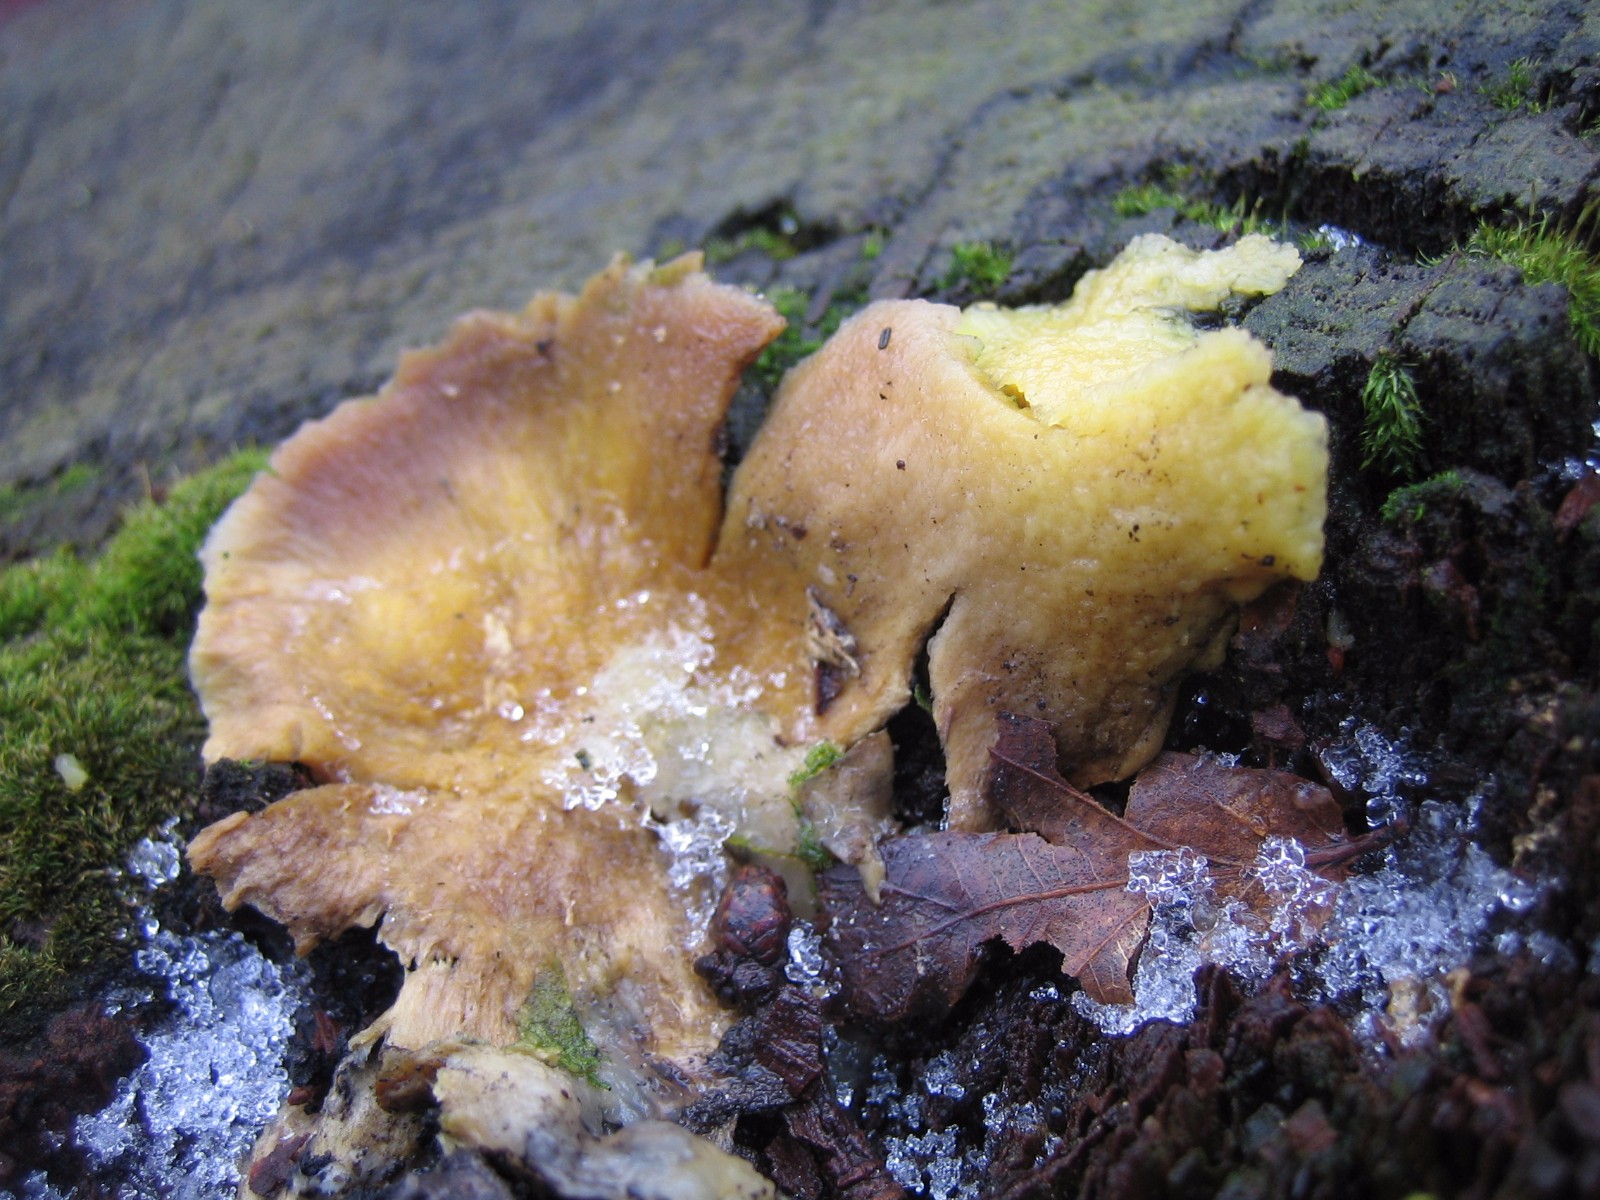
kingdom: Fungi
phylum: Basidiomycota
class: Agaricomycetes
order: Boletales
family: Sclerodermataceae
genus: Scleroderma
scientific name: Scleroderma citrinum
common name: almindelig bruskbold
